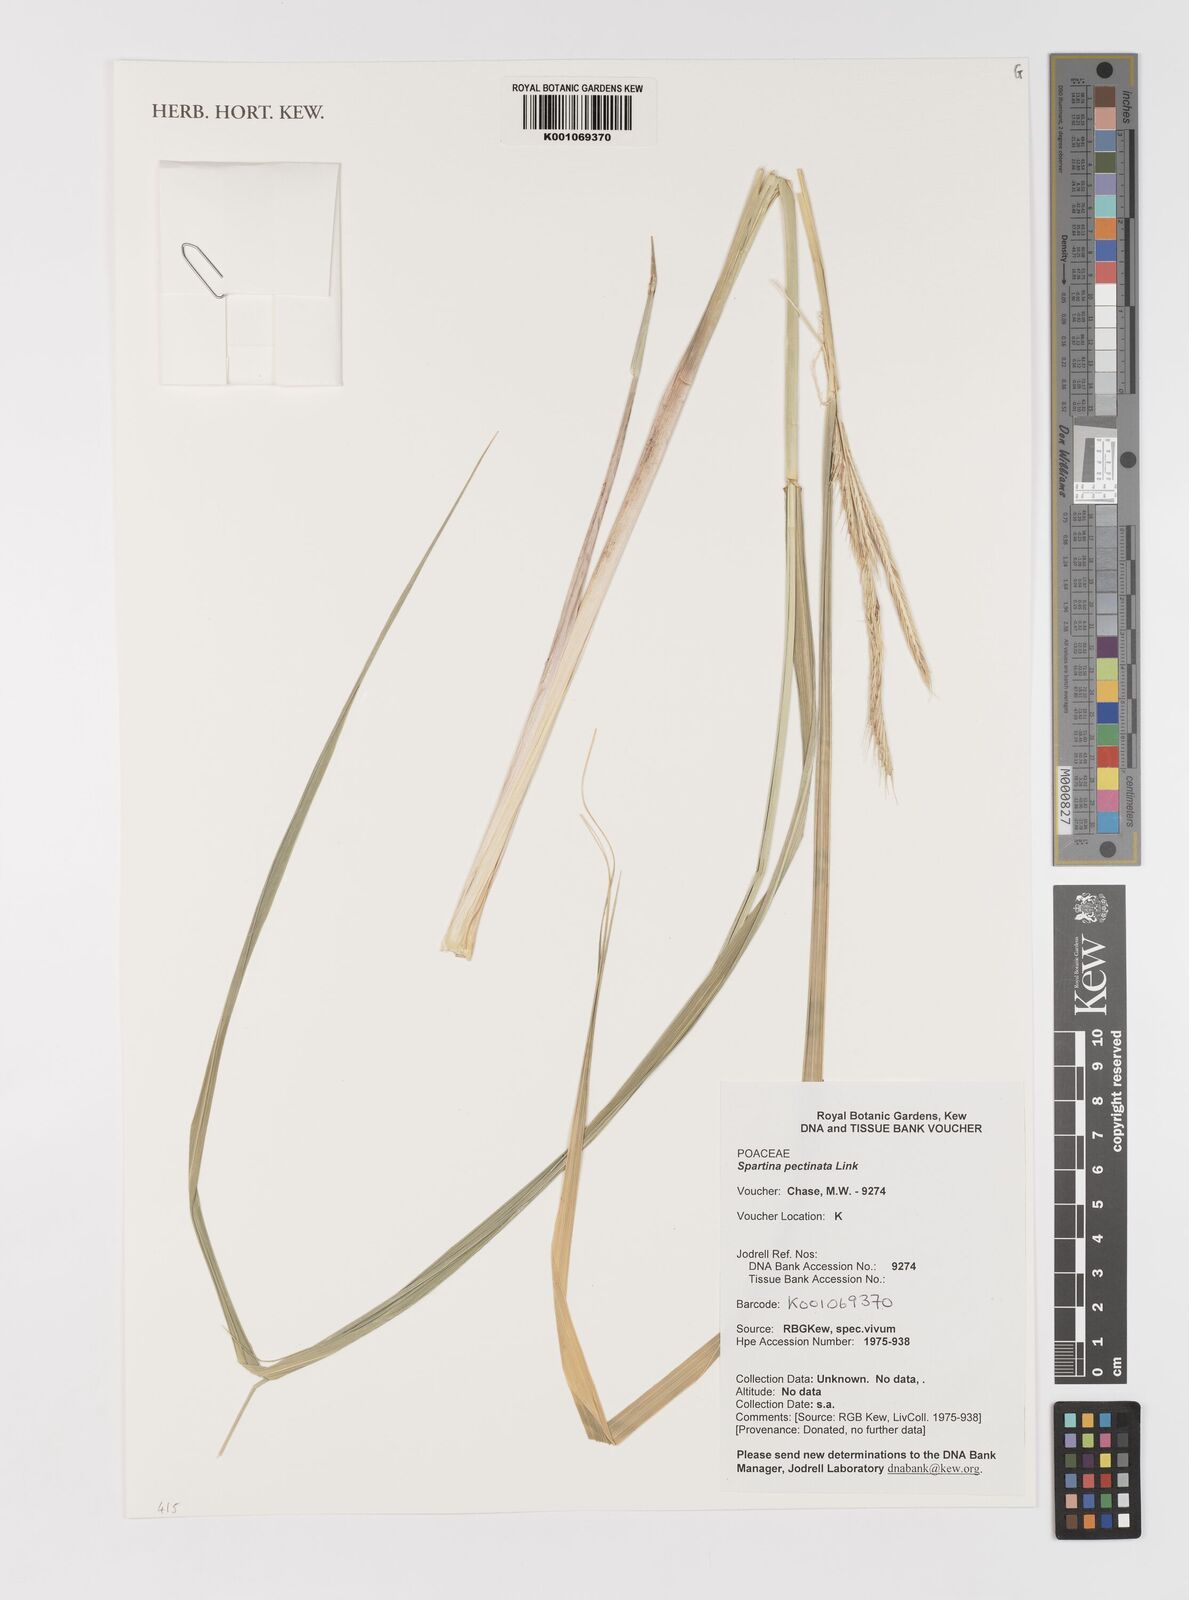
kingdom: Plantae
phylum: Tracheophyta
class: Liliopsida
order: Poales
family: Poaceae
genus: Sporobolus
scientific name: Sporobolus michauxianus
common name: Freshwater cordgrass
